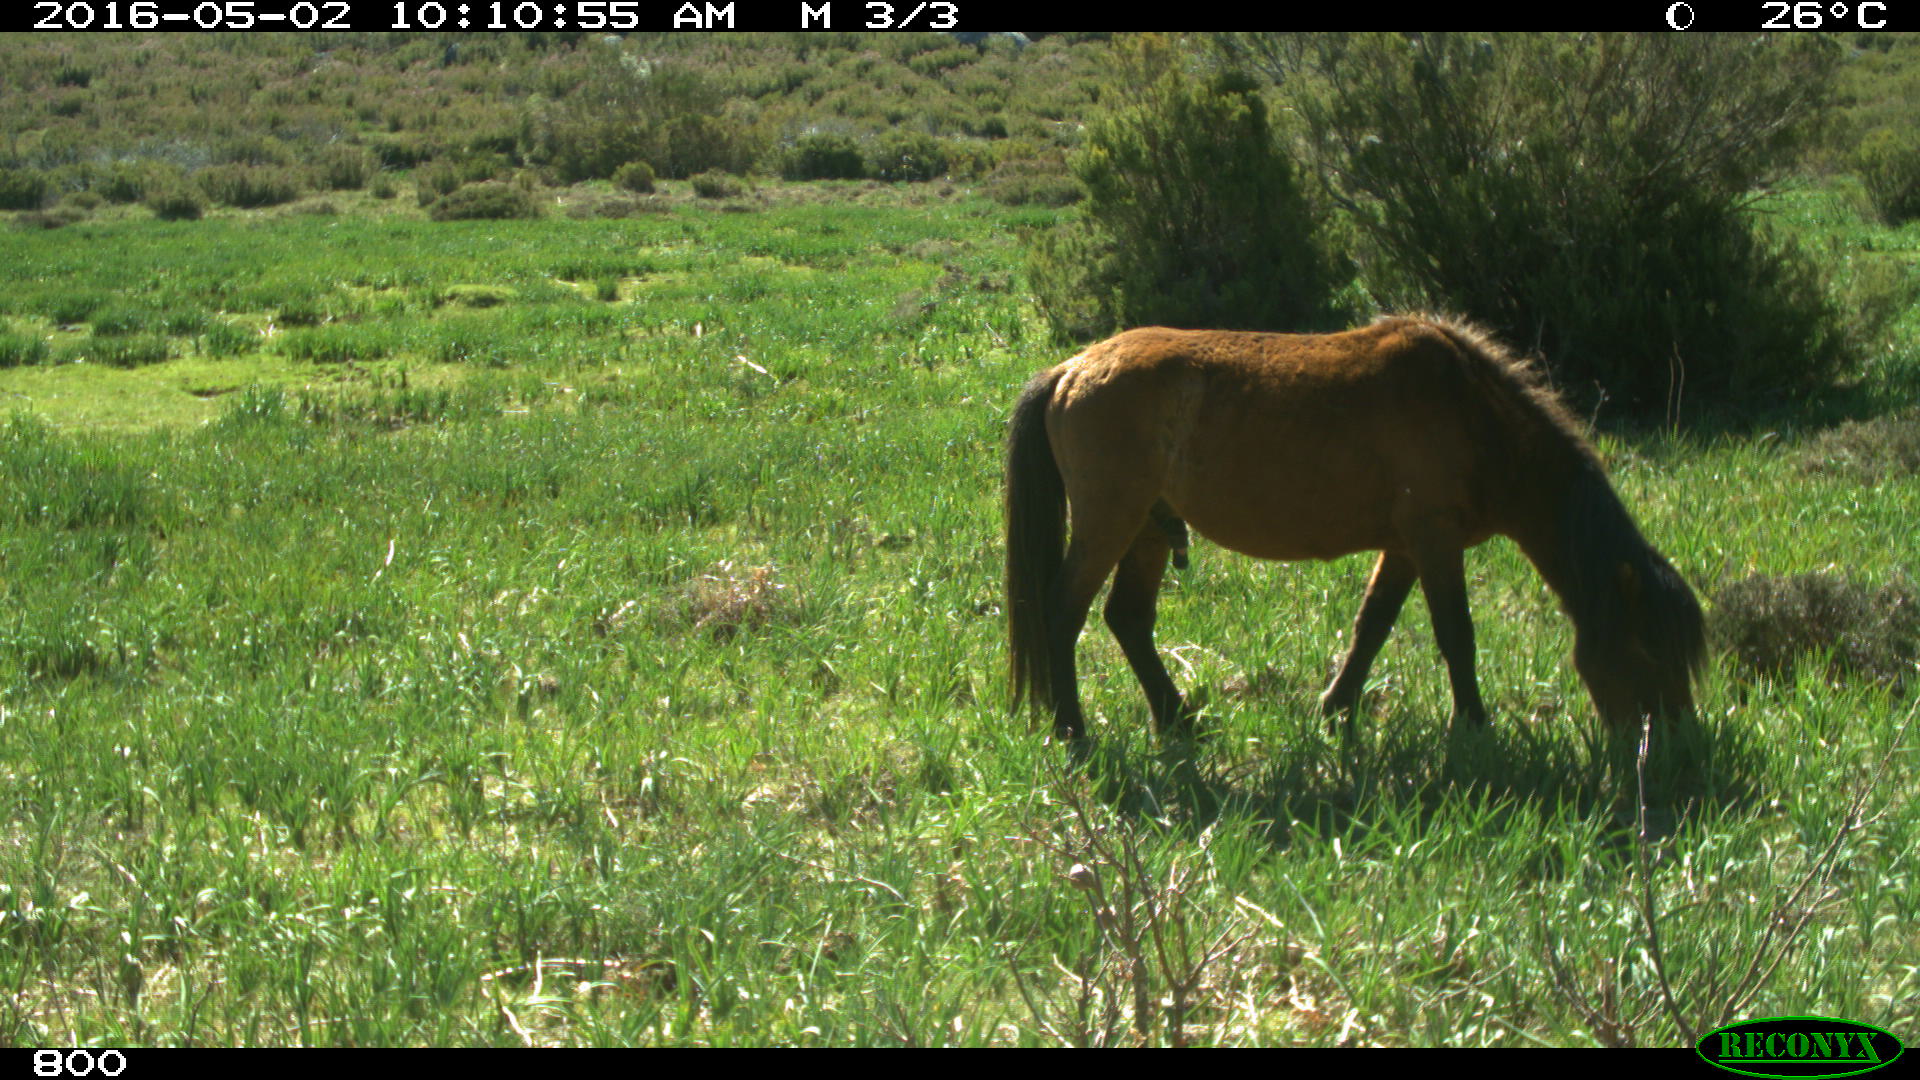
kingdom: Animalia
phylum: Chordata
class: Mammalia
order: Perissodactyla
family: Equidae
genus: Equus
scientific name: Equus caballus
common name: Horse
